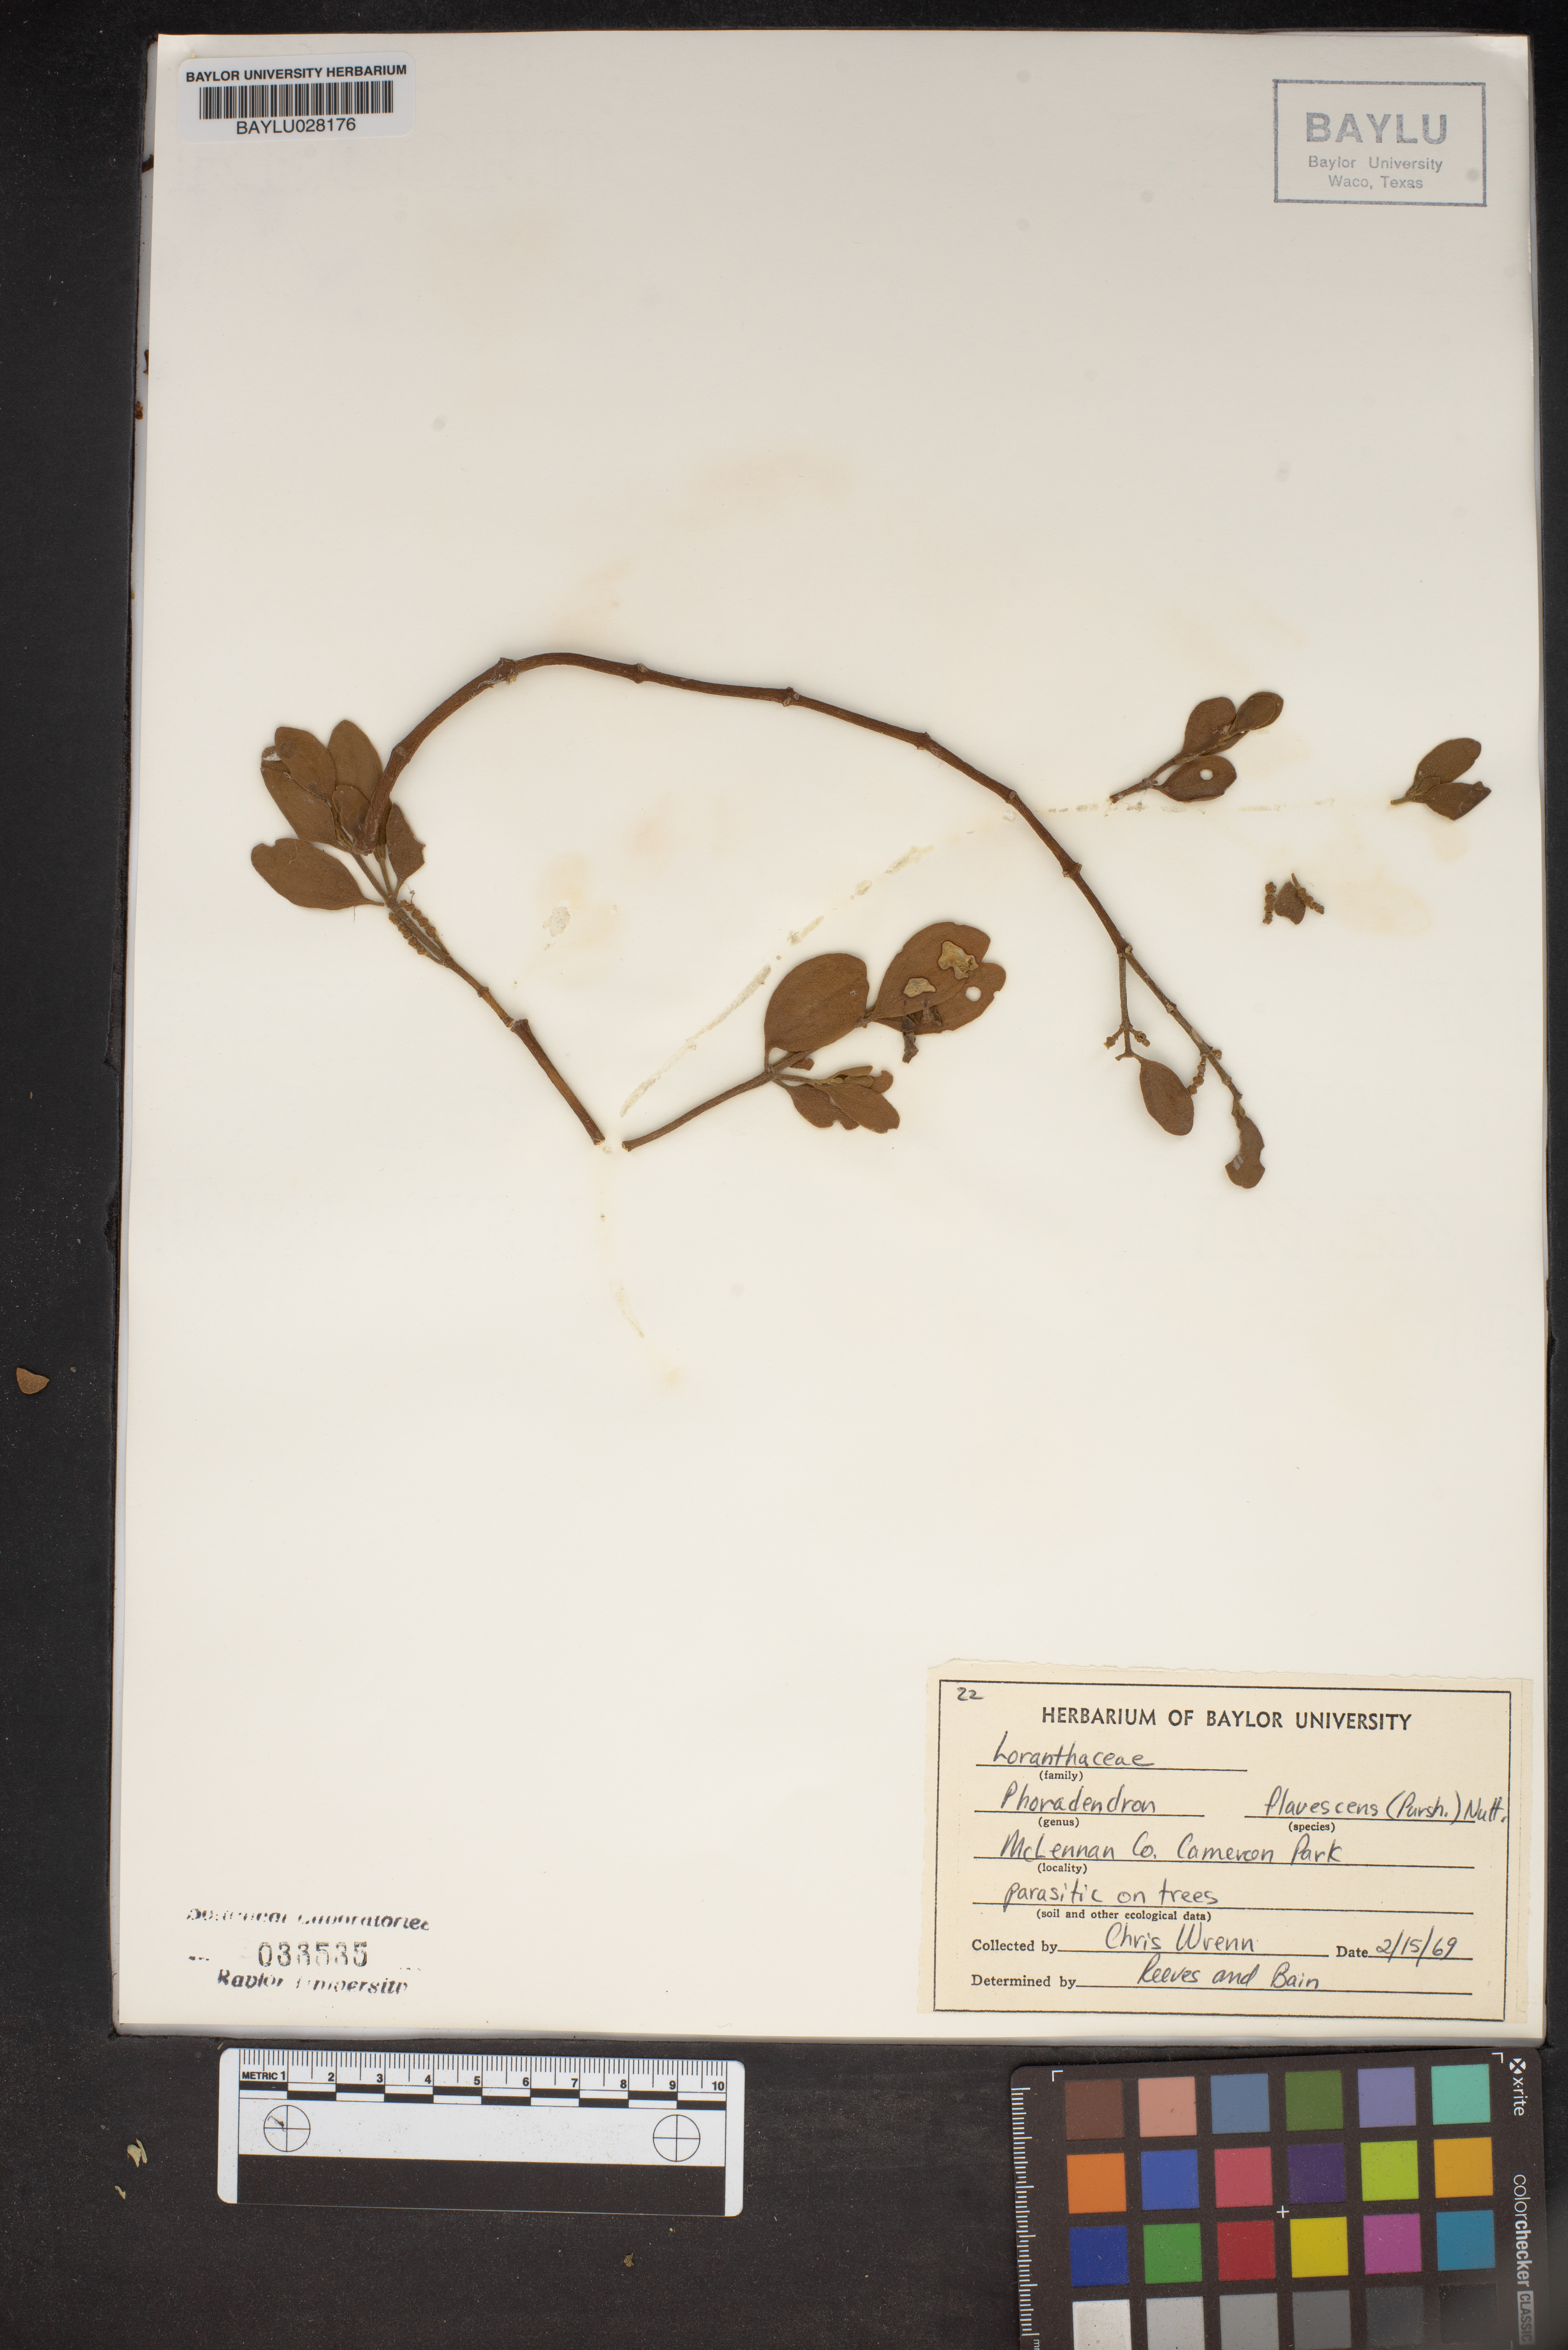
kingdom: Plantae
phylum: Tracheophyta
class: Magnoliopsida
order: Santalales
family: Viscaceae
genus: Phoradendron
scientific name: Phoradendron leucarpum
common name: Pacific mistletoe
